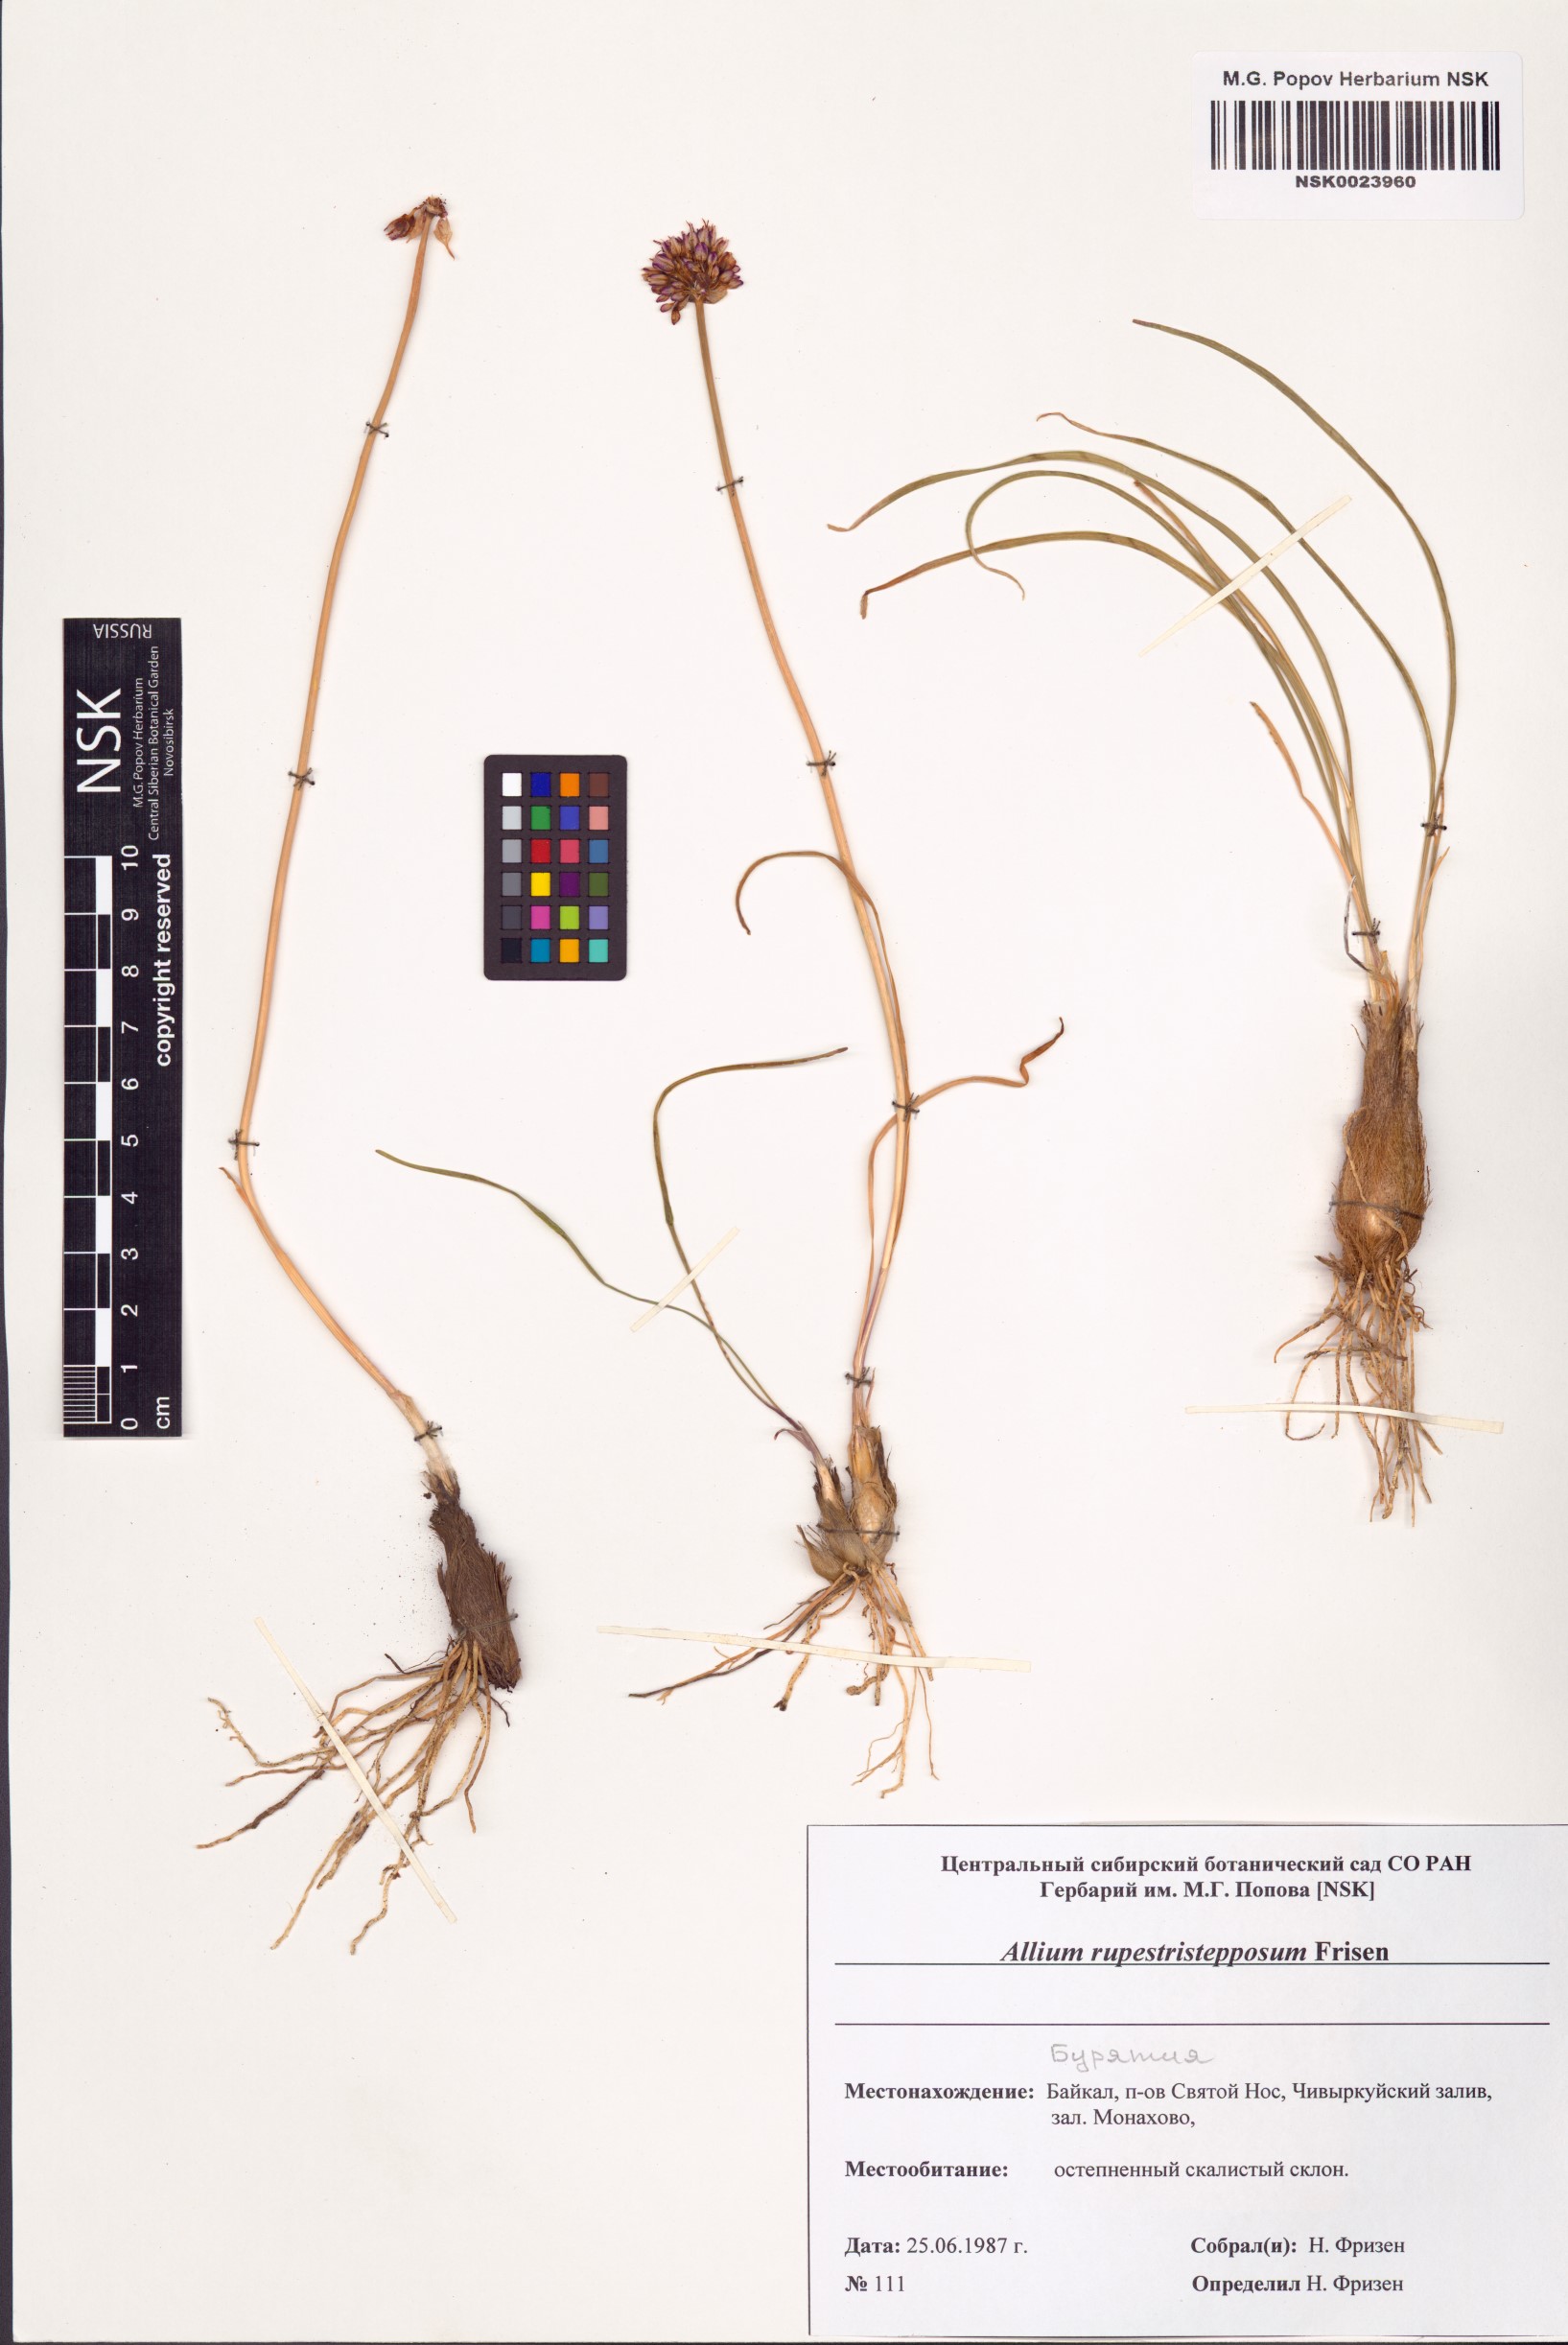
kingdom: Plantae
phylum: Tracheophyta
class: Liliopsida
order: Asparagales
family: Amaryllidaceae
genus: Allium
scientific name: Allium rupestristepposum
